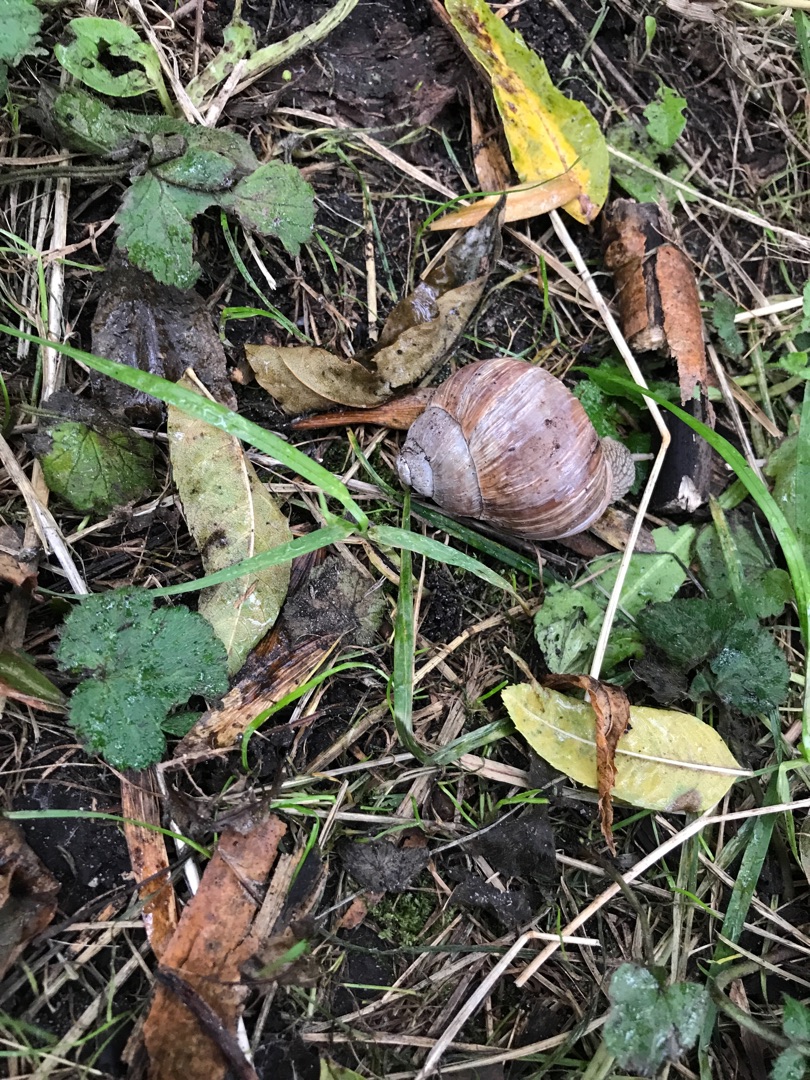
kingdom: Animalia
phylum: Mollusca
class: Gastropoda
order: Stylommatophora
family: Helicidae
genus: Helix
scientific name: Helix pomatia
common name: Vinbjergsnegl
